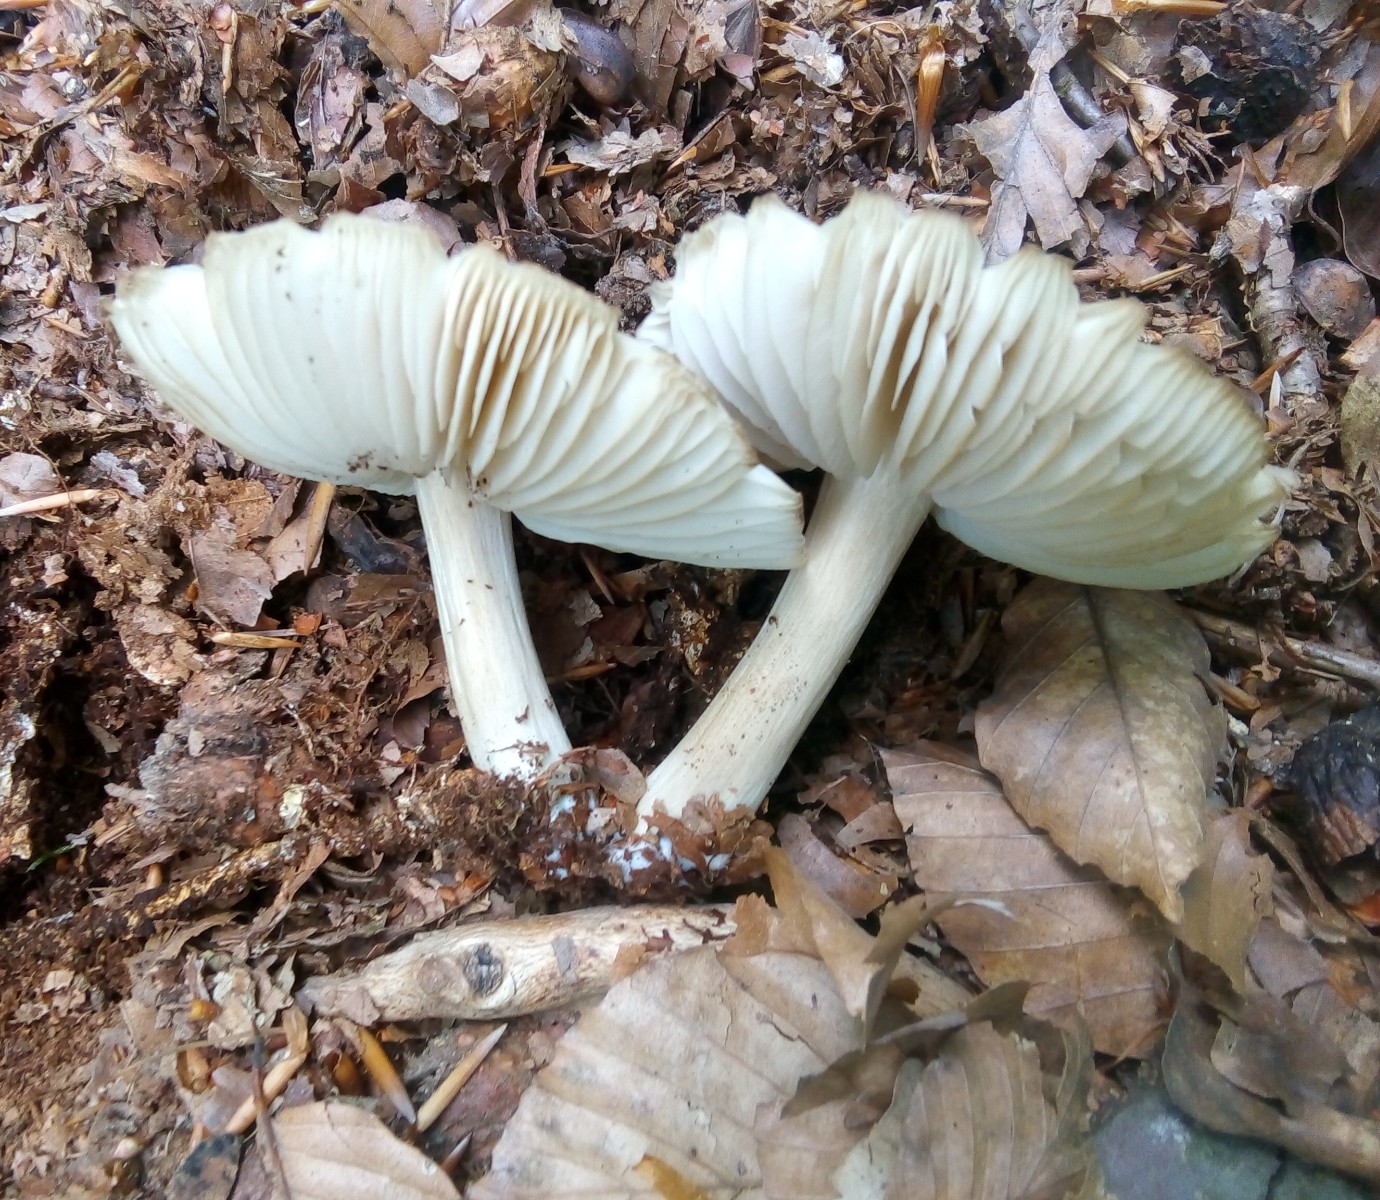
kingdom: Fungi
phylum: Basidiomycota
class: Agaricomycetes
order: Agaricales
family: Tricholomataceae
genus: Megacollybia
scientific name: Megacollybia platyphylla
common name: bredbladet væbnerhat
